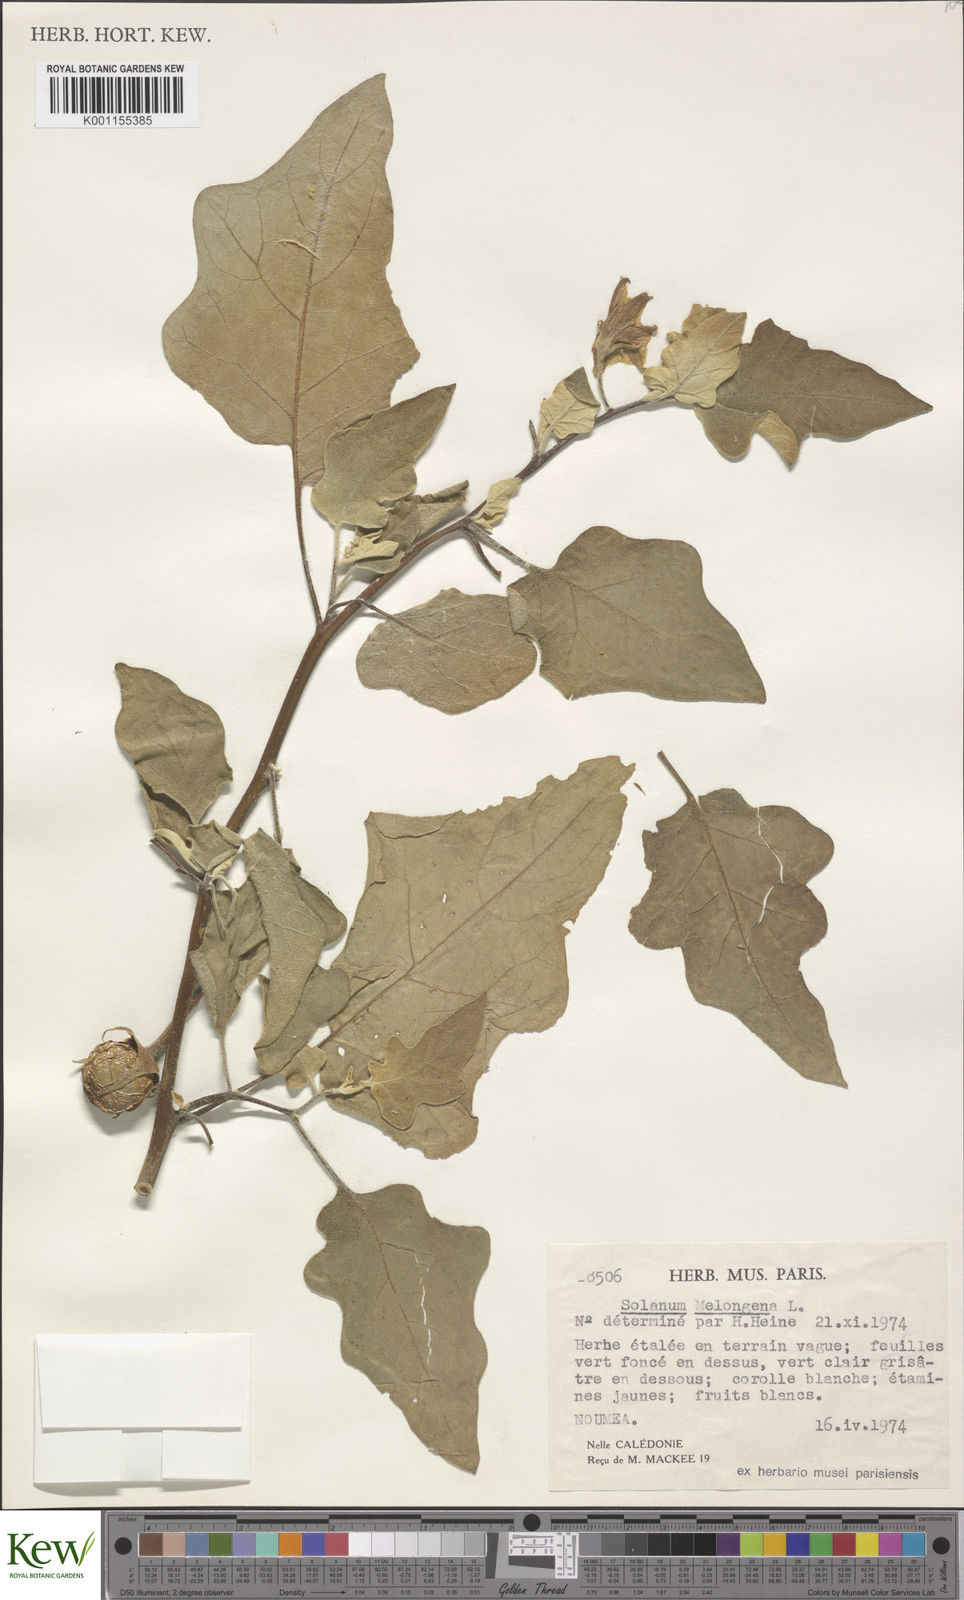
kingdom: Plantae
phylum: Tracheophyta
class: Magnoliopsida
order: Solanales
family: Solanaceae
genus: Solanum
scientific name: Solanum melongena
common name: Eggplant
